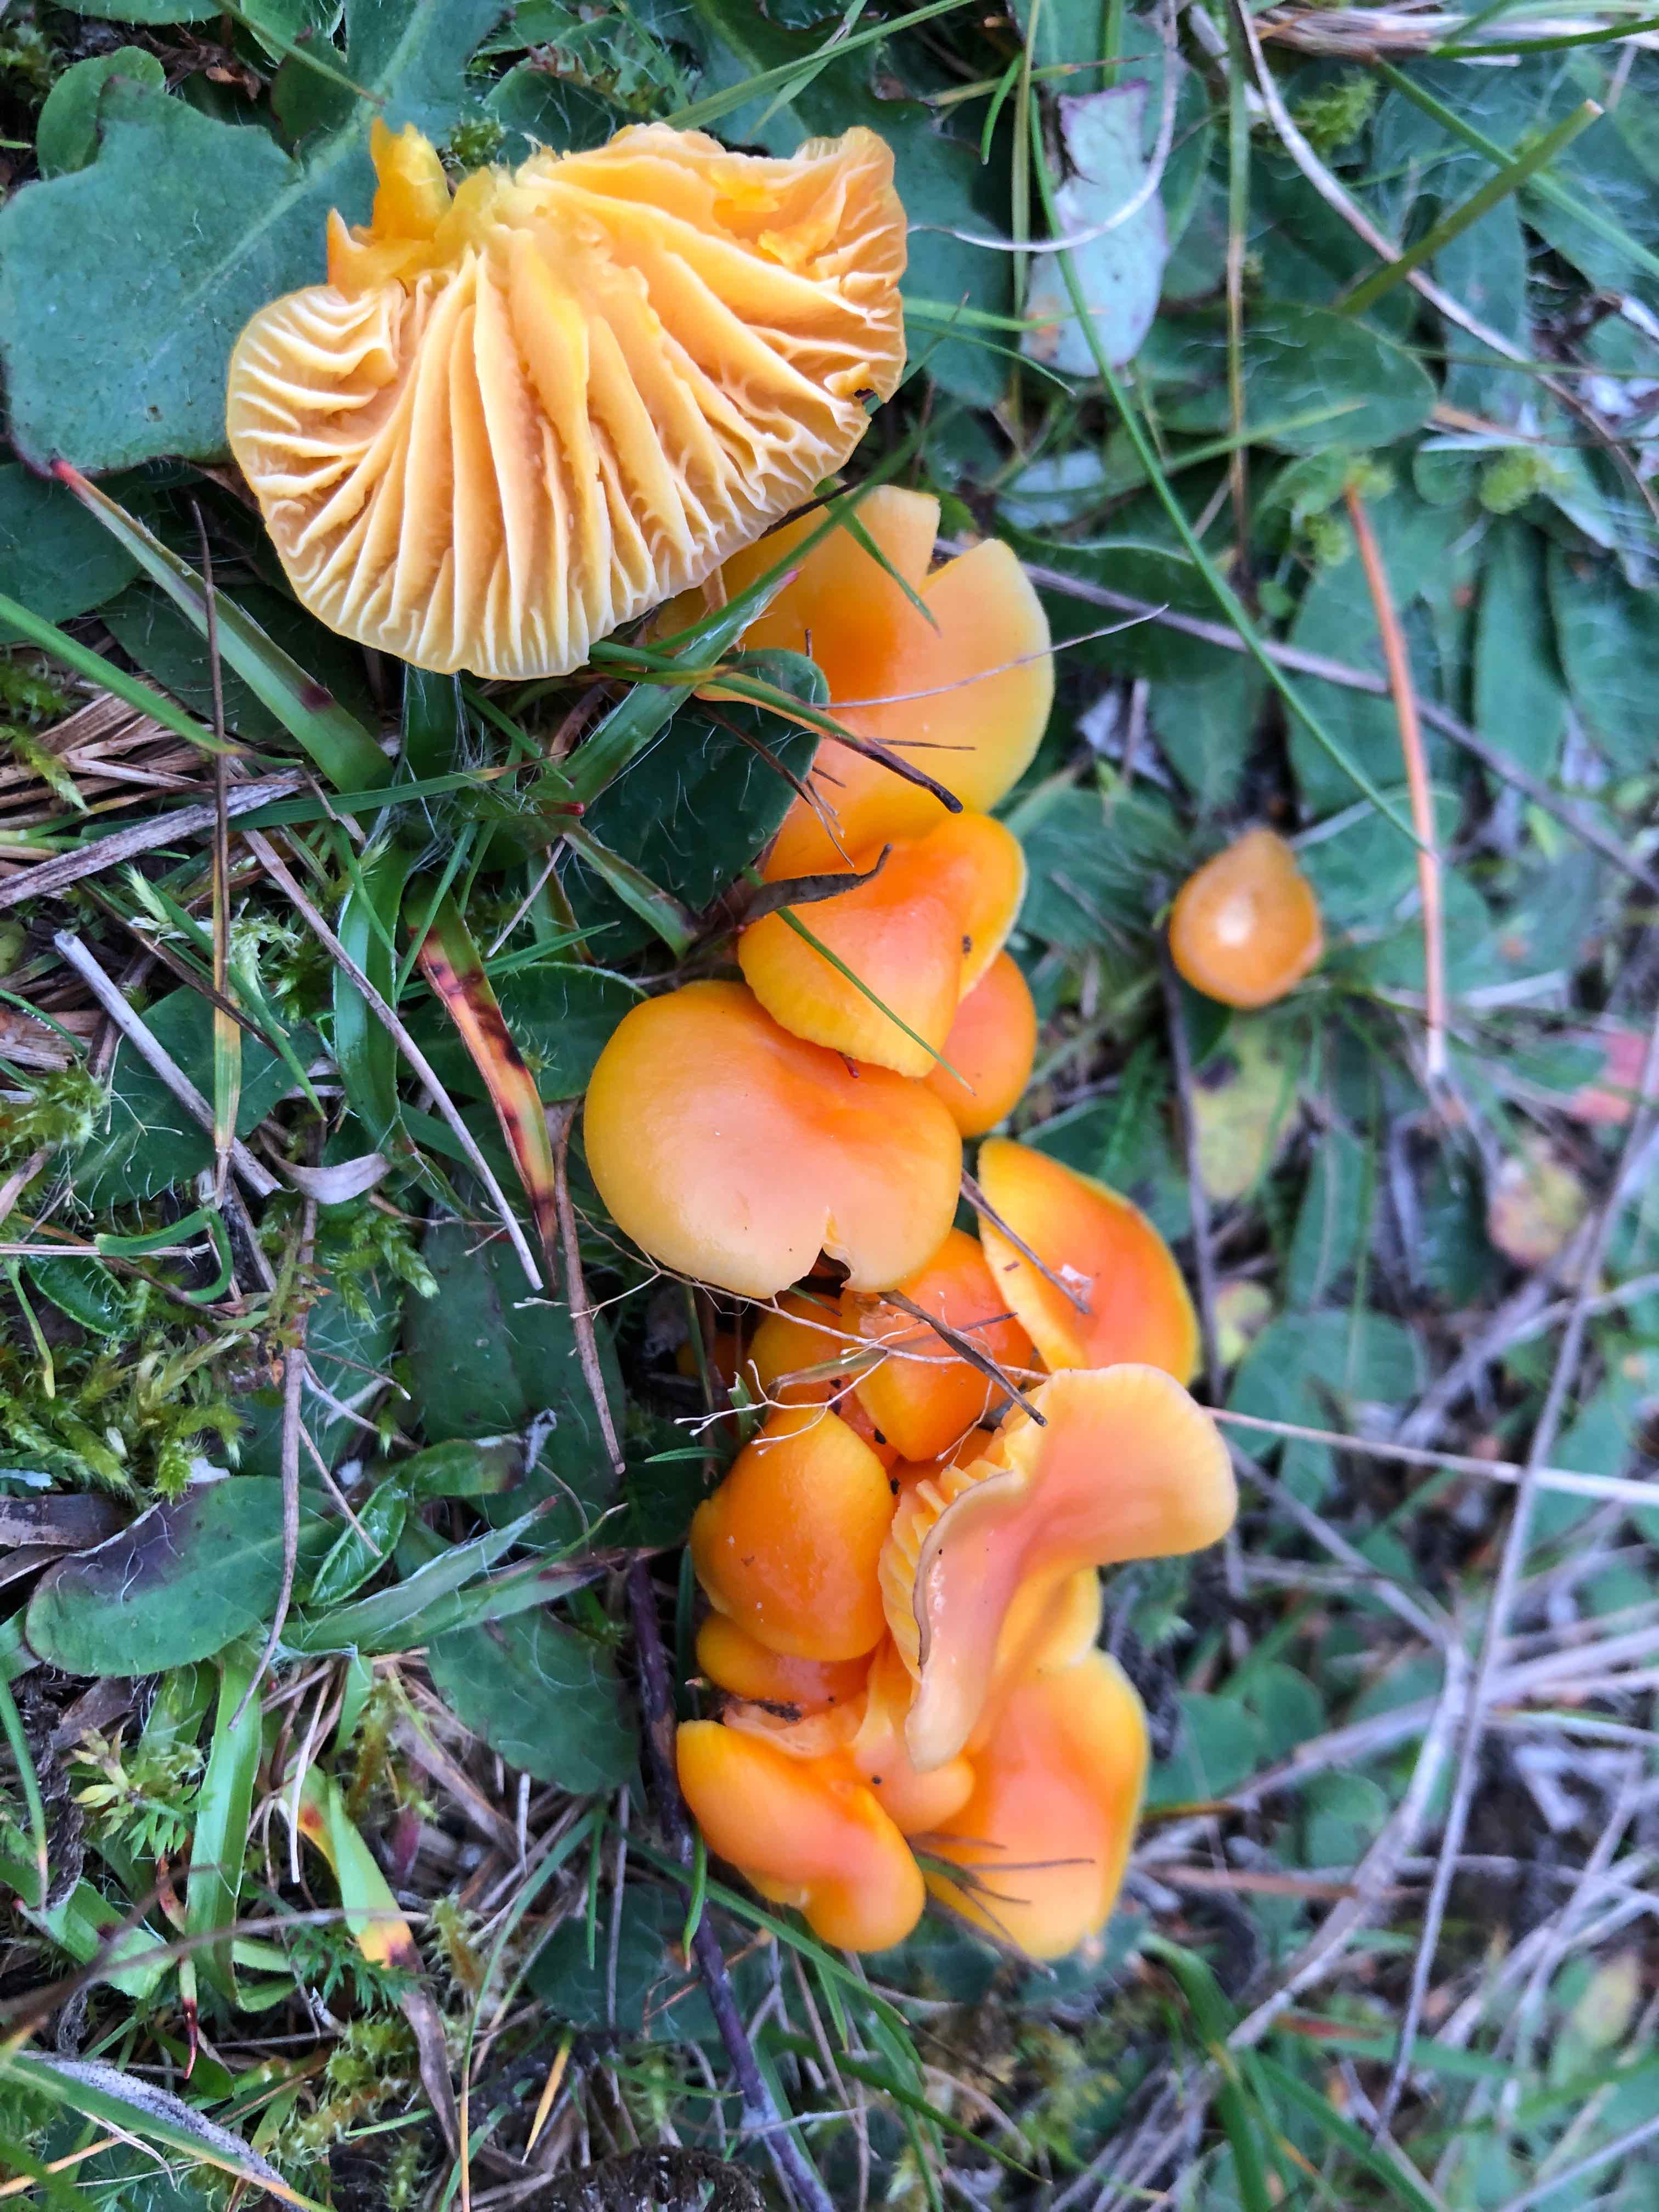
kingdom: Fungi
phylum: Basidiomycota
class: Agaricomycetes
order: Agaricales
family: Hygrophoraceae
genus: Hygrocybe
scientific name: Hygrocybe ceracea
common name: voksgul vokshat
